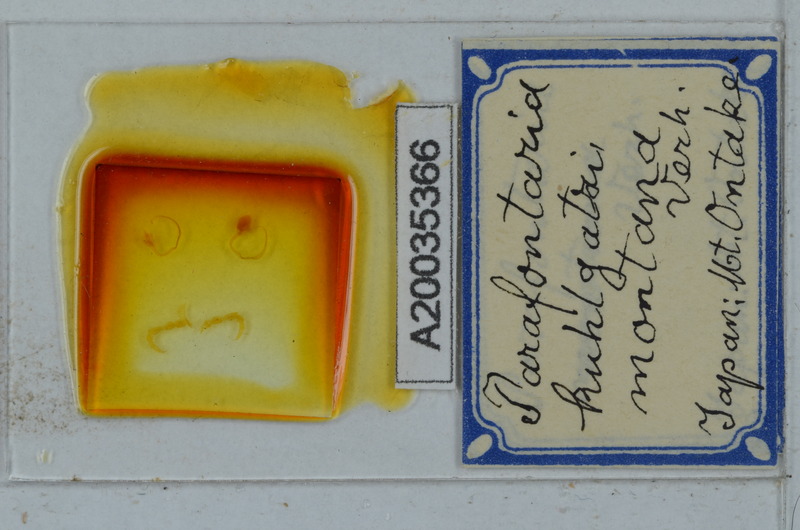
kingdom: Animalia
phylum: Arthropoda
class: Diplopoda
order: Polydesmida
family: Xystodesmidae
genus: Parafontaria
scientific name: Parafontaria
